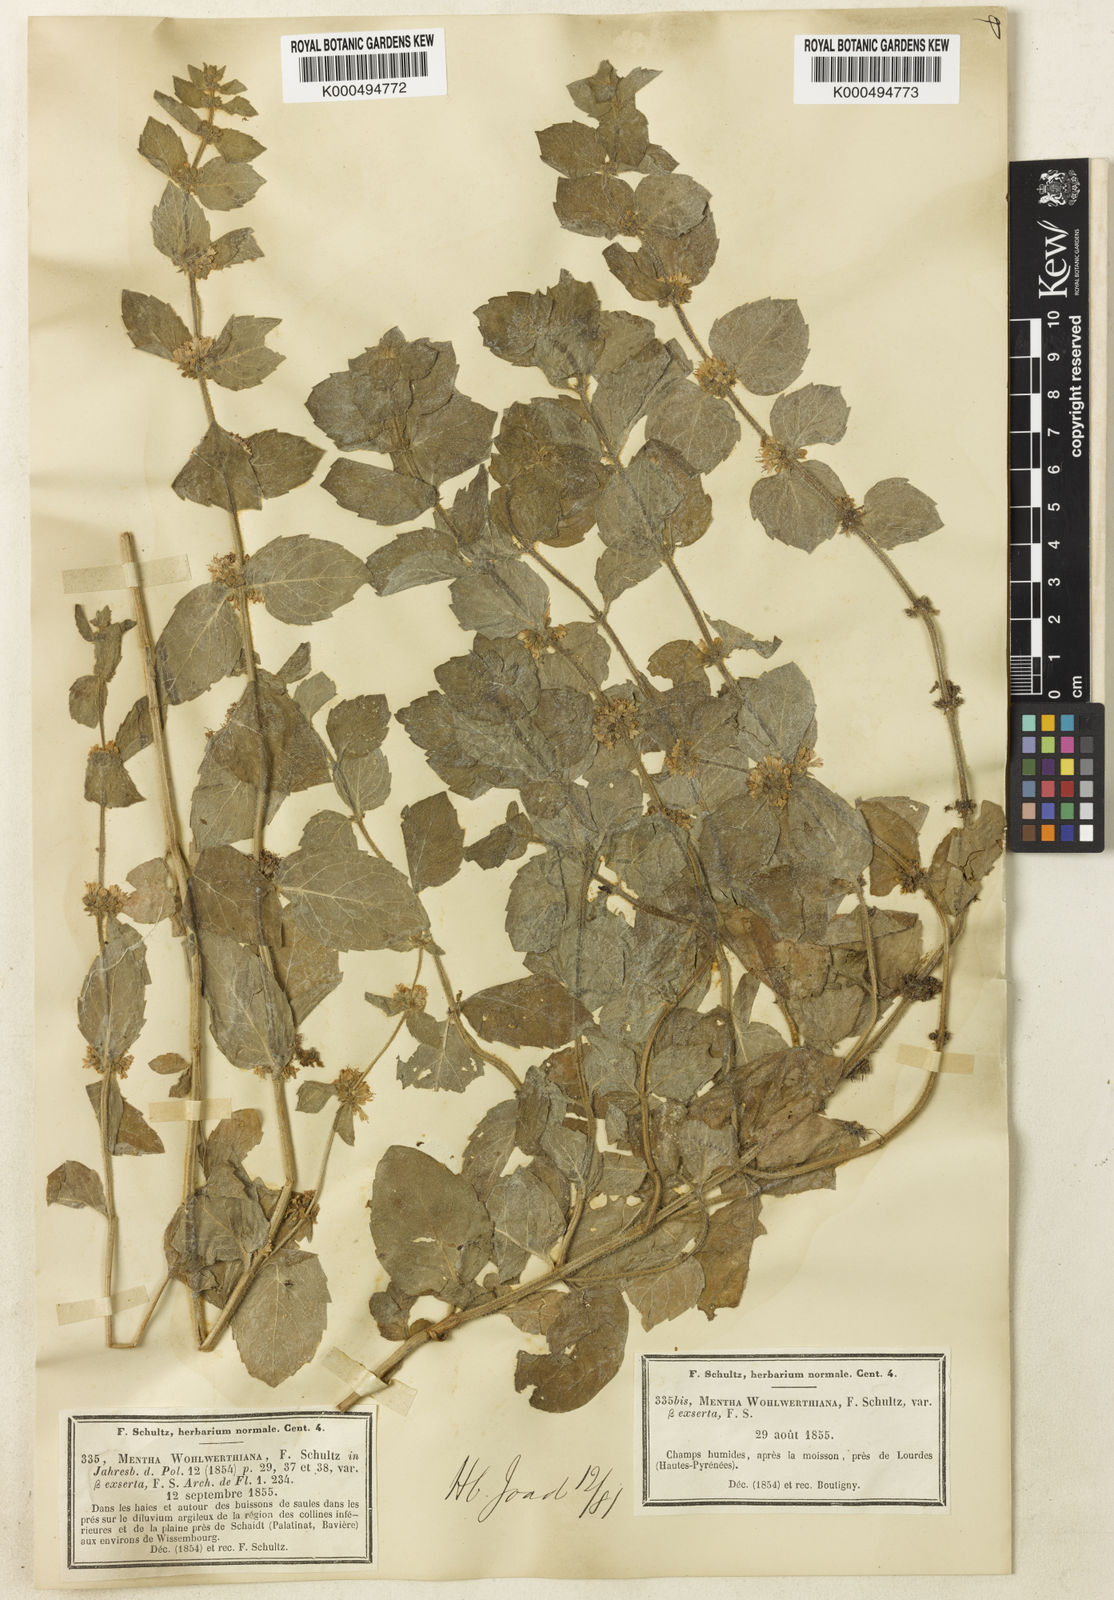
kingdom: Plantae
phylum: Tracheophyta
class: Magnoliopsida
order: Lamiales
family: Lamiaceae
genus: Mentha
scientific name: Mentha carinthiaca
